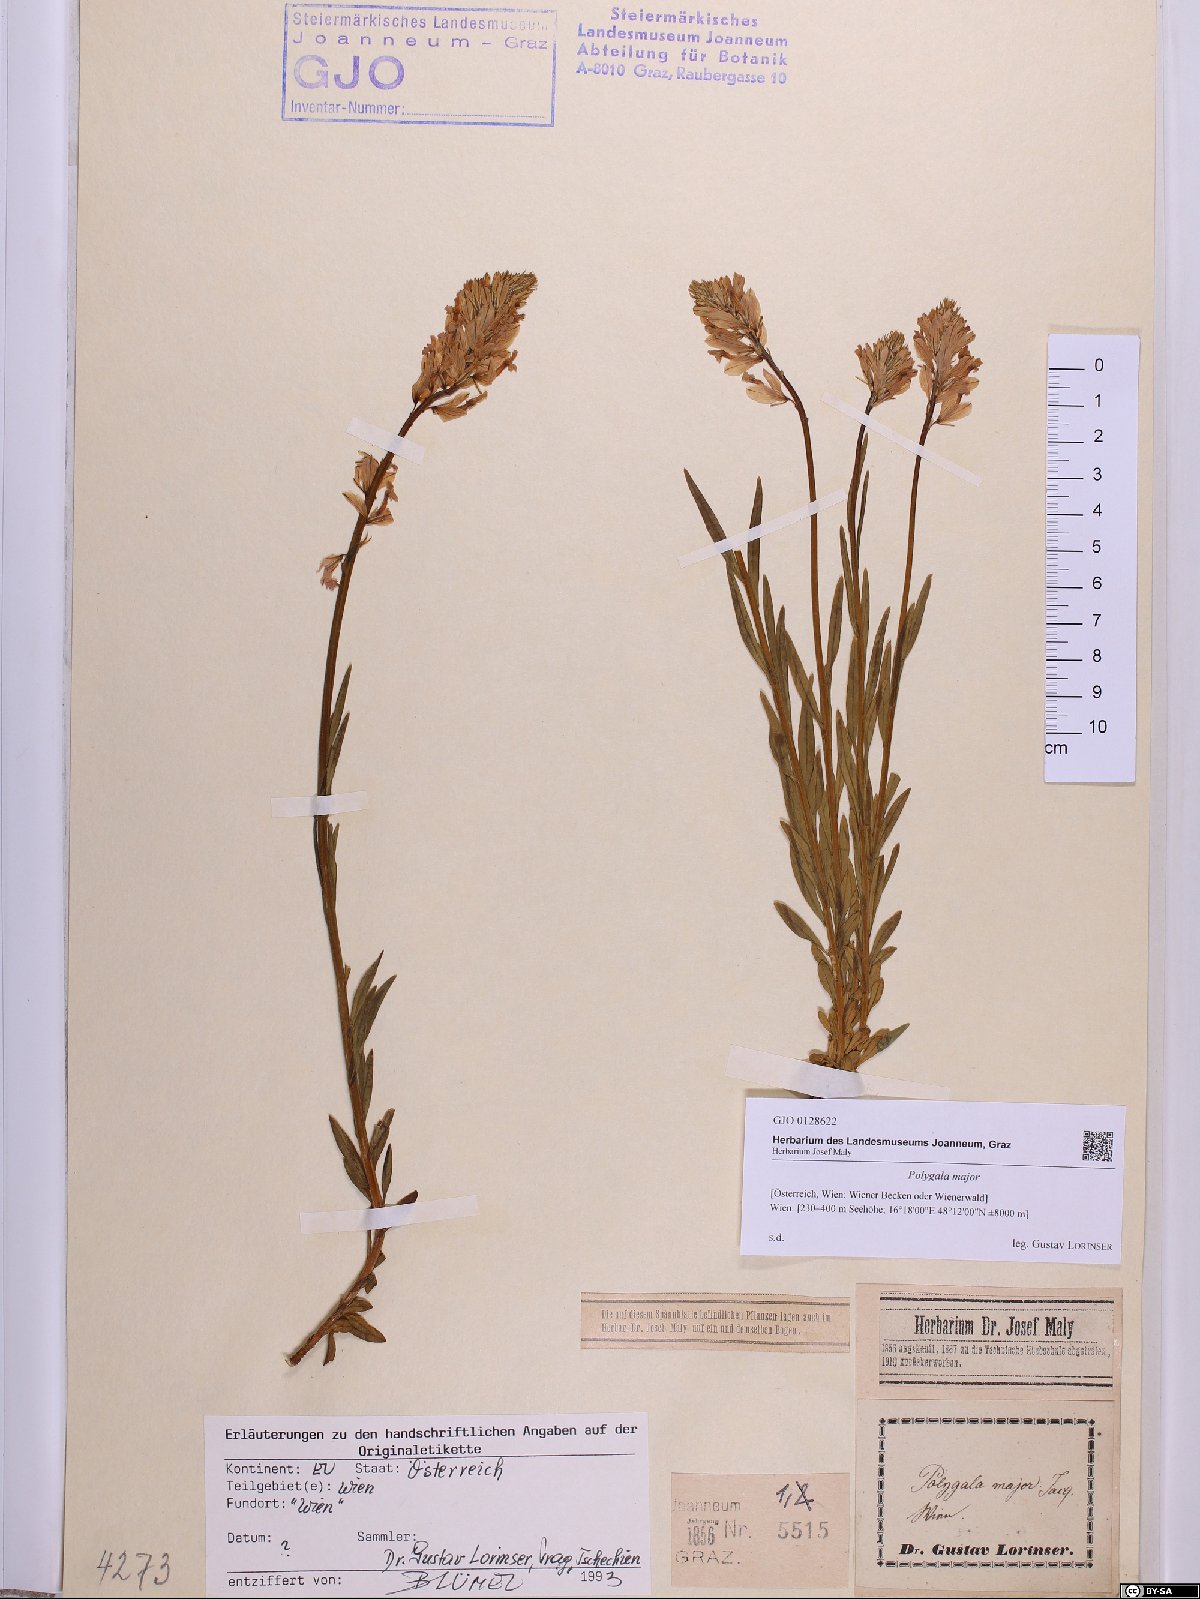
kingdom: Plantae
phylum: Tracheophyta
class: Magnoliopsida
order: Fabales
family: Polygalaceae
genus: Polygala
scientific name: Polygala major
